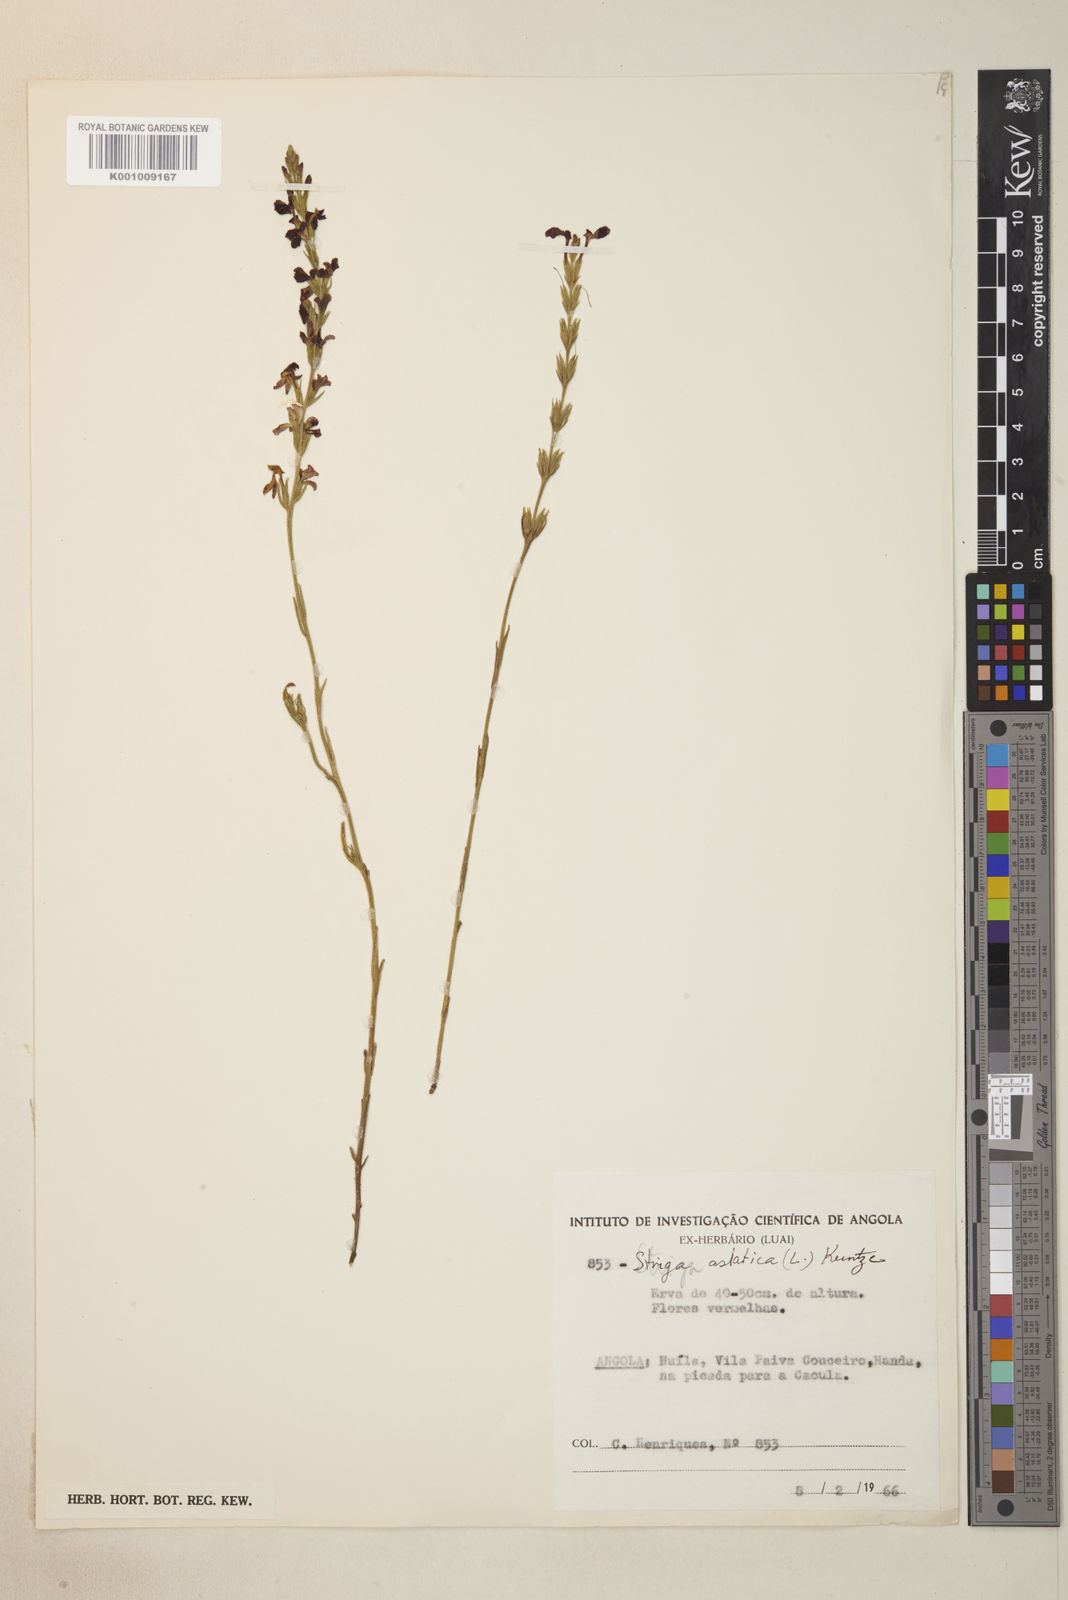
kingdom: Plantae
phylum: Tracheophyta
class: Magnoliopsida
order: Lamiales
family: Orobanchaceae
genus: Striga
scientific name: Striga asiatica
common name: Asiatic witchweed
